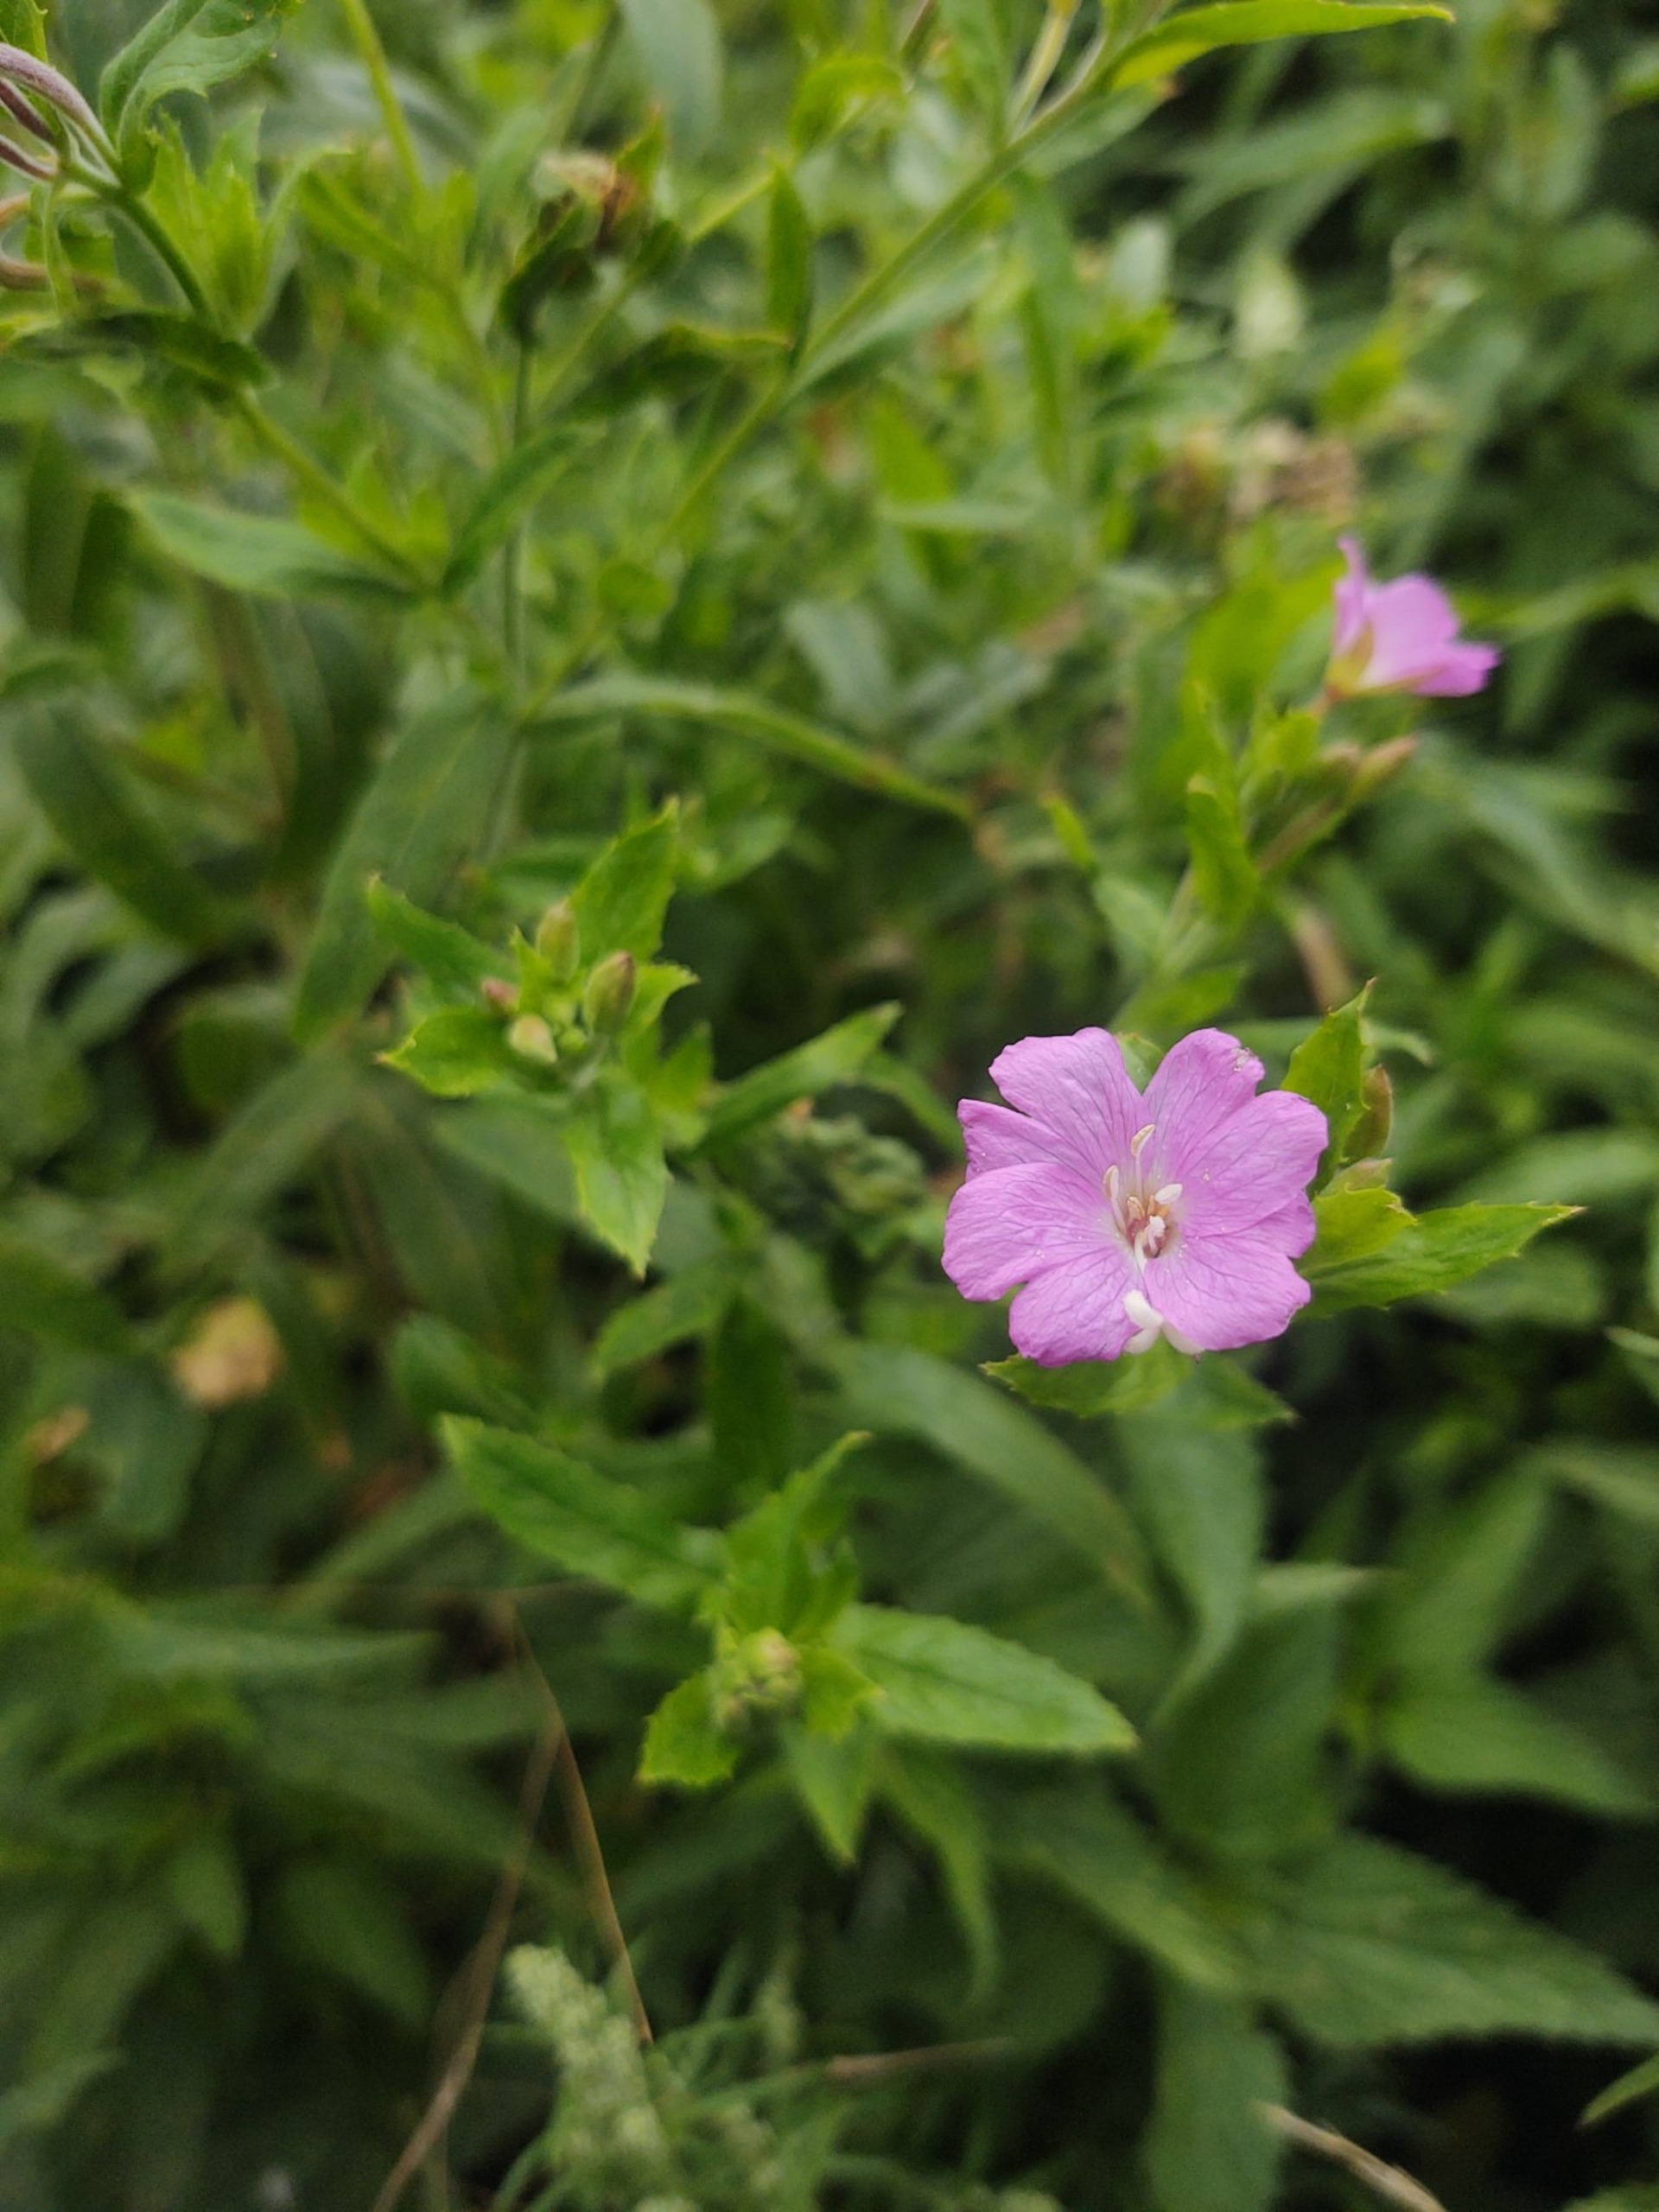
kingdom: Plantae
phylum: Tracheophyta
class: Magnoliopsida
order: Myrtales
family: Onagraceae
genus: Epilobium
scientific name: Epilobium hirsutum
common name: Lådden dueurt
